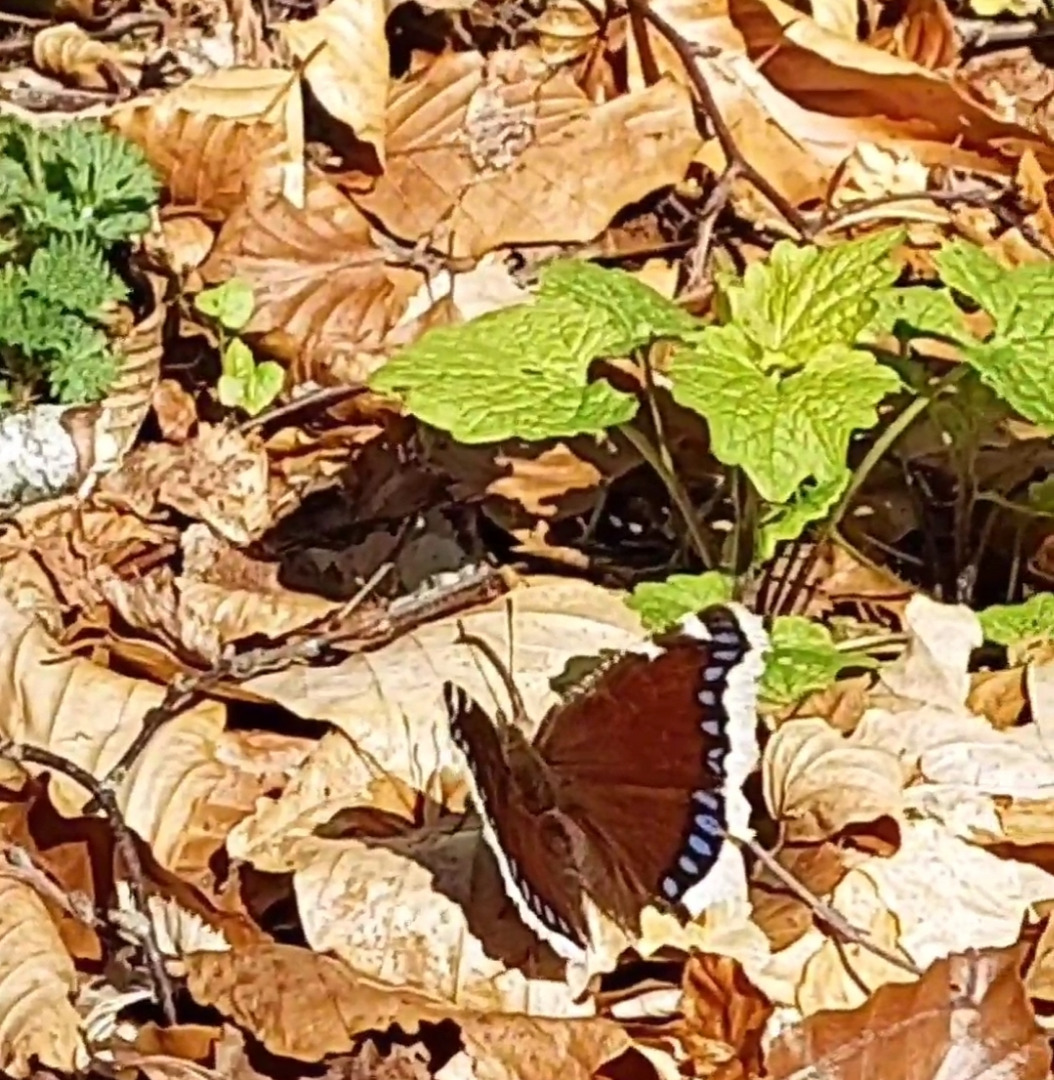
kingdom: Animalia
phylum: Arthropoda
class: Insecta
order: Lepidoptera
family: Nymphalidae
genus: Nymphalis
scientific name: Nymphalis antiopa
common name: Sørgekåbe
